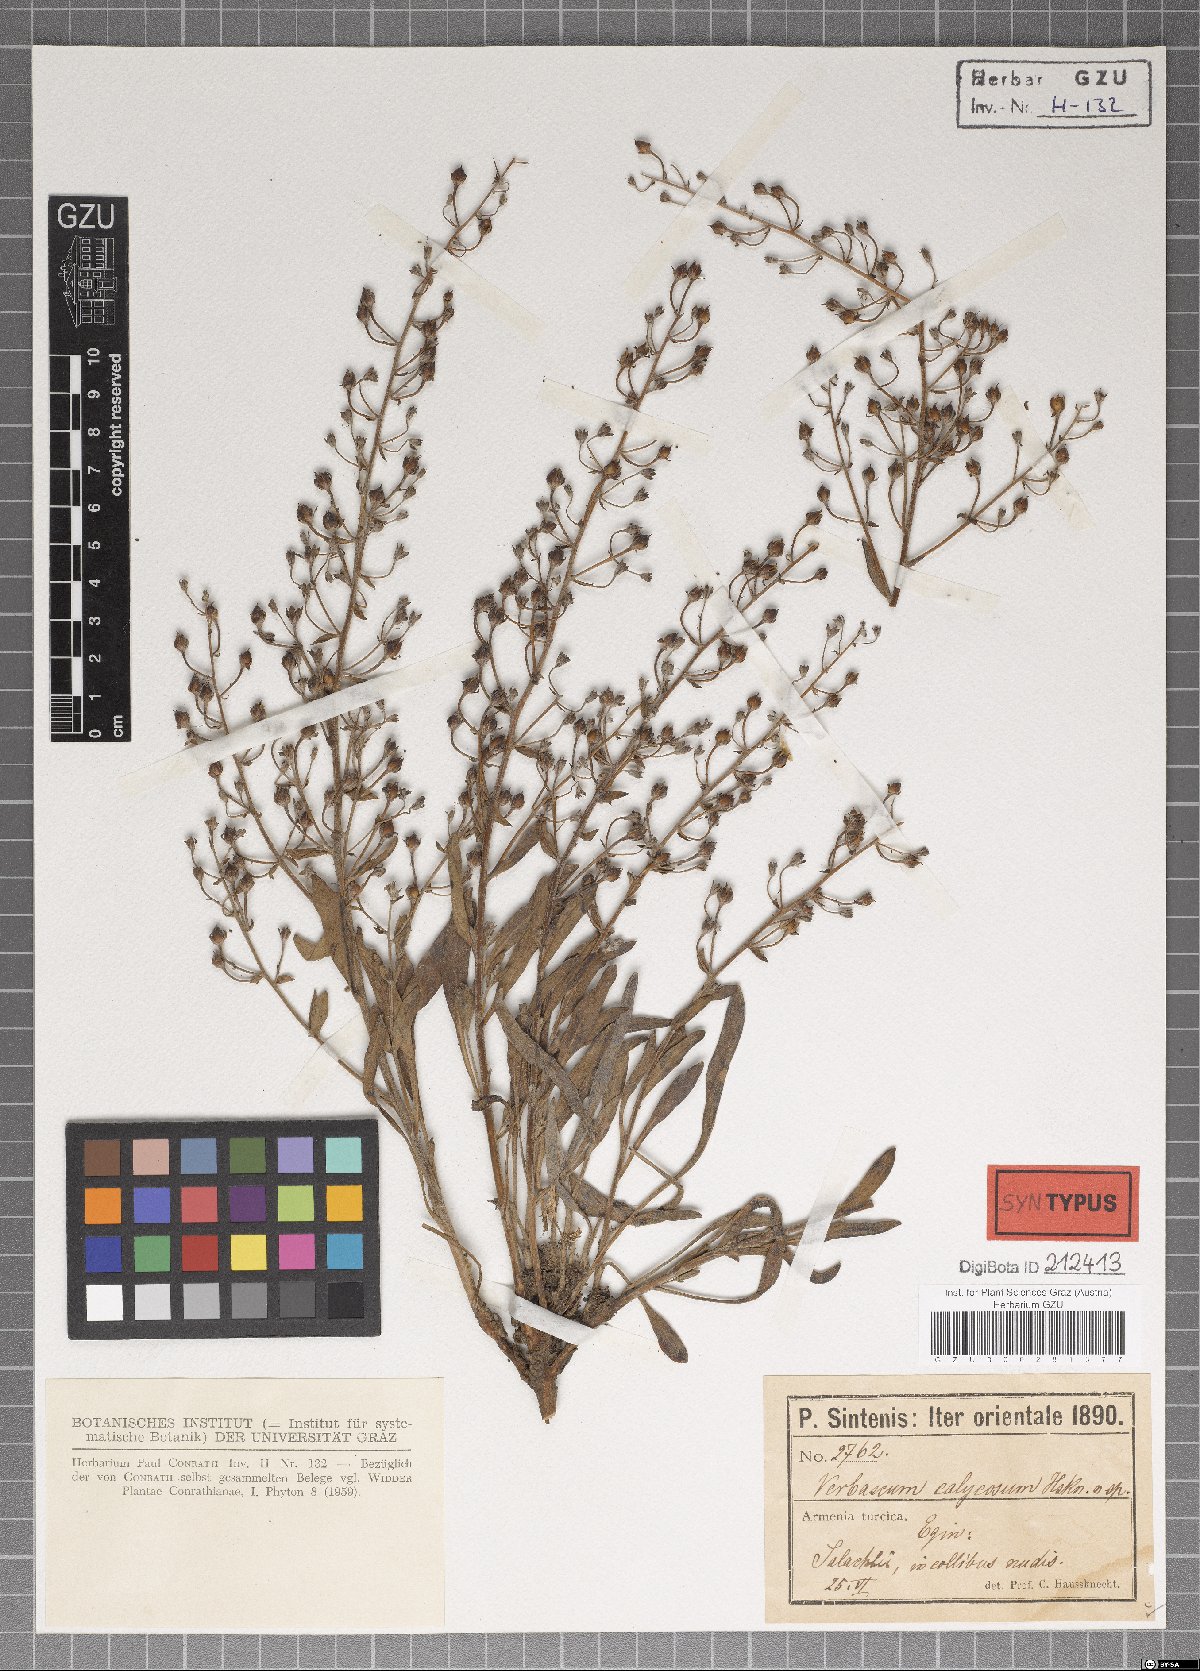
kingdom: Plantae
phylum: Tracheophyta
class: Magnoliopsida
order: Lamiales
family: Scrophulariaceae
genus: Verbascum
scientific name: Verbascum calycosum
